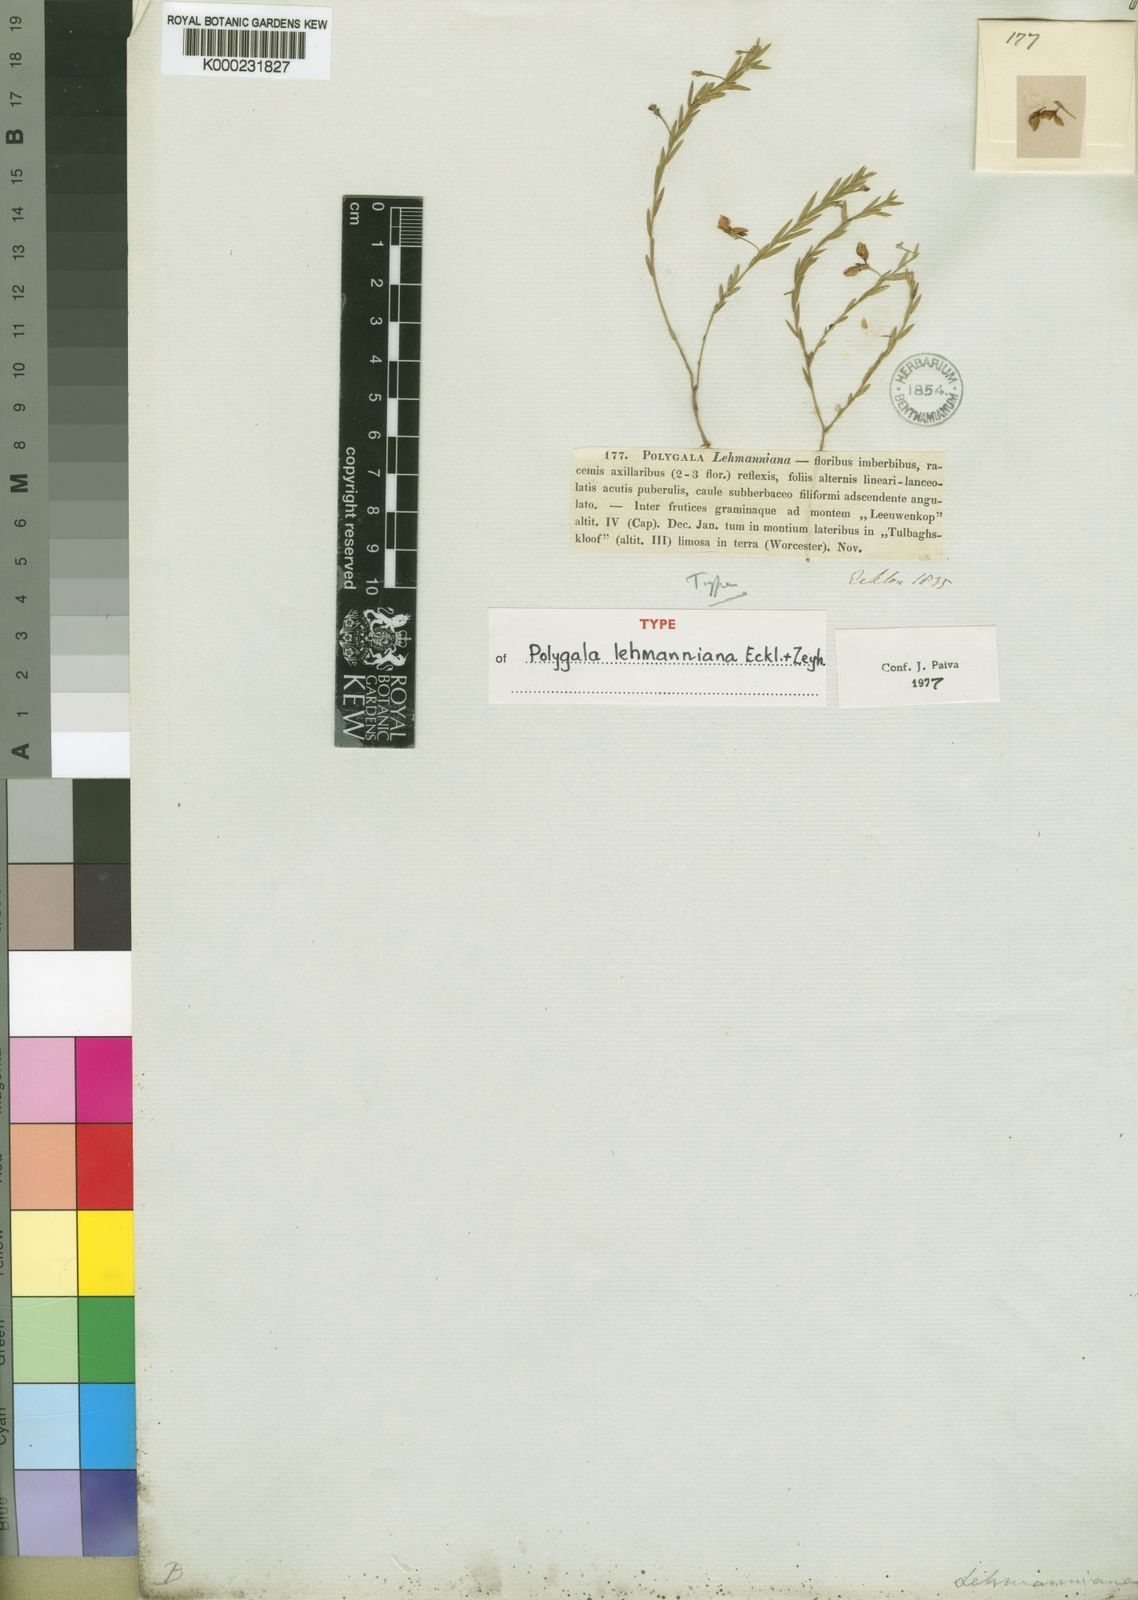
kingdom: Plantae
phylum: Tracheophyta
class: Magnoliopsida
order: Fabales
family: Polygalaceae
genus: Polygala
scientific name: Polygala lehmanniana
